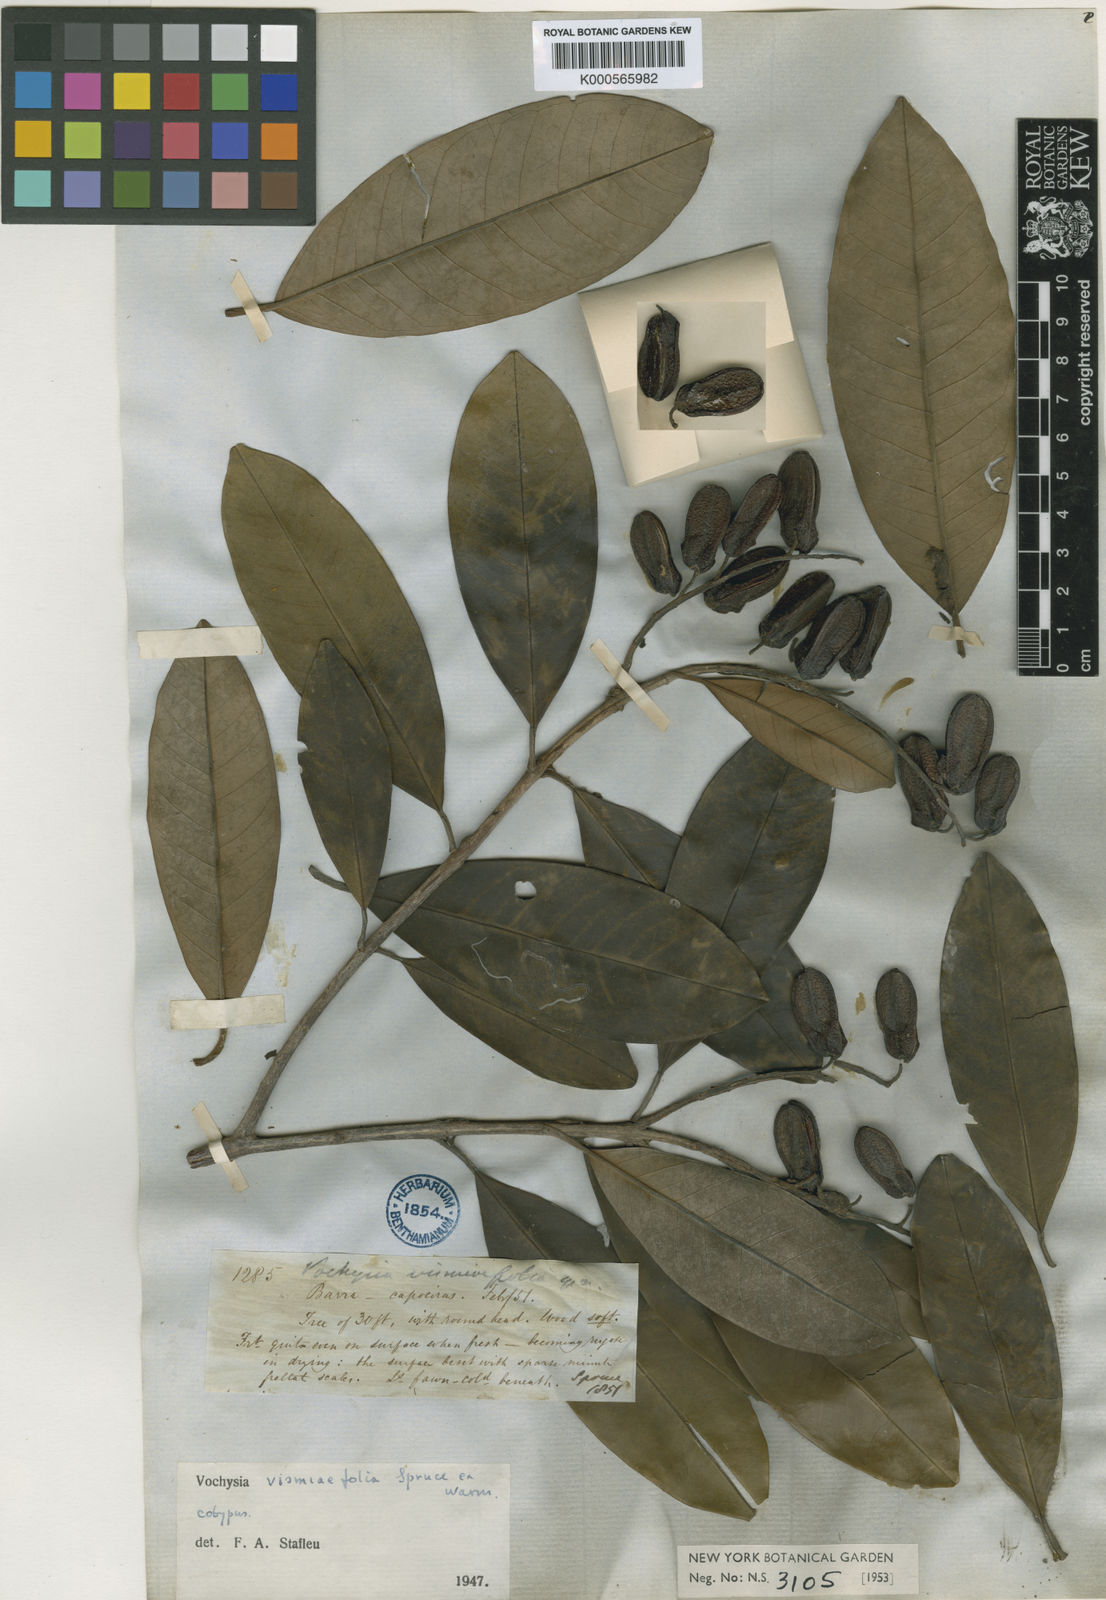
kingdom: Plantae
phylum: Tracheophyta
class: Magnoliopsida
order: Myrtales
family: Vochysiaceae
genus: Vochysia
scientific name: Vochysia vismiifolia
